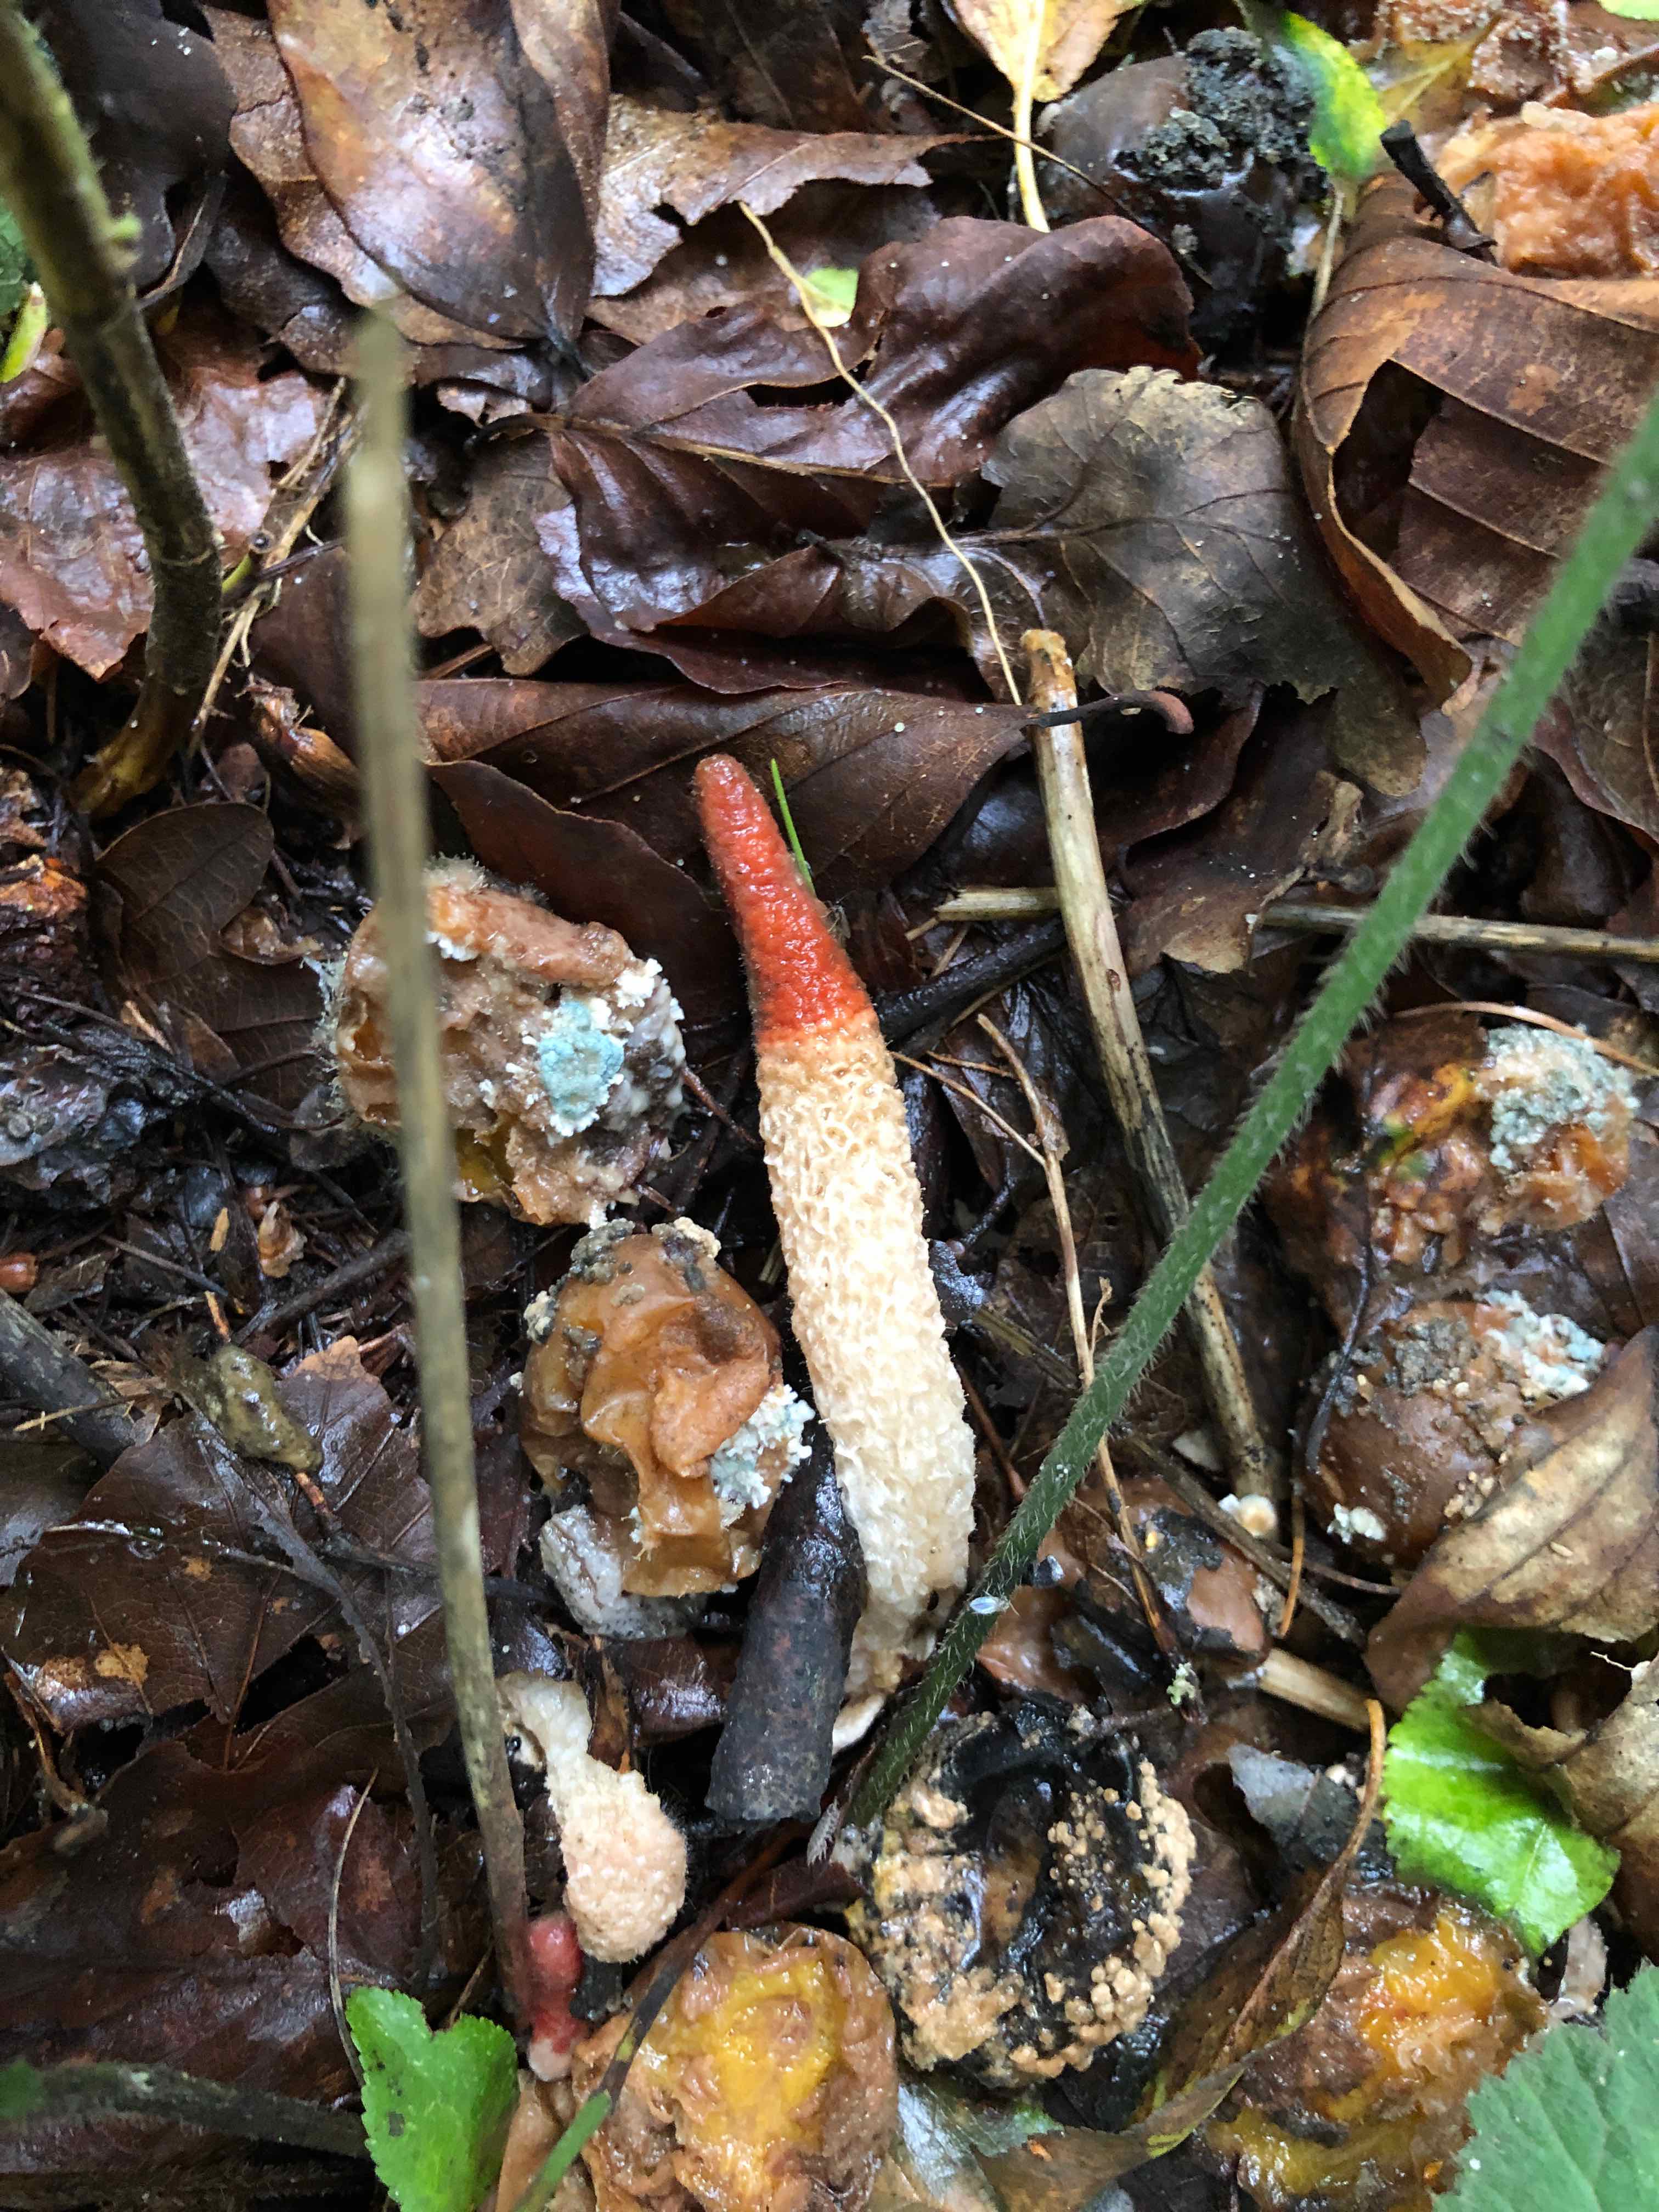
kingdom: Fungi
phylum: Basidiomycota
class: Agaricomycetes
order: Phallales
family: Phallaceae
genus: Mutinus
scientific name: Mutinus caninus
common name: hunde-stinksvamp
